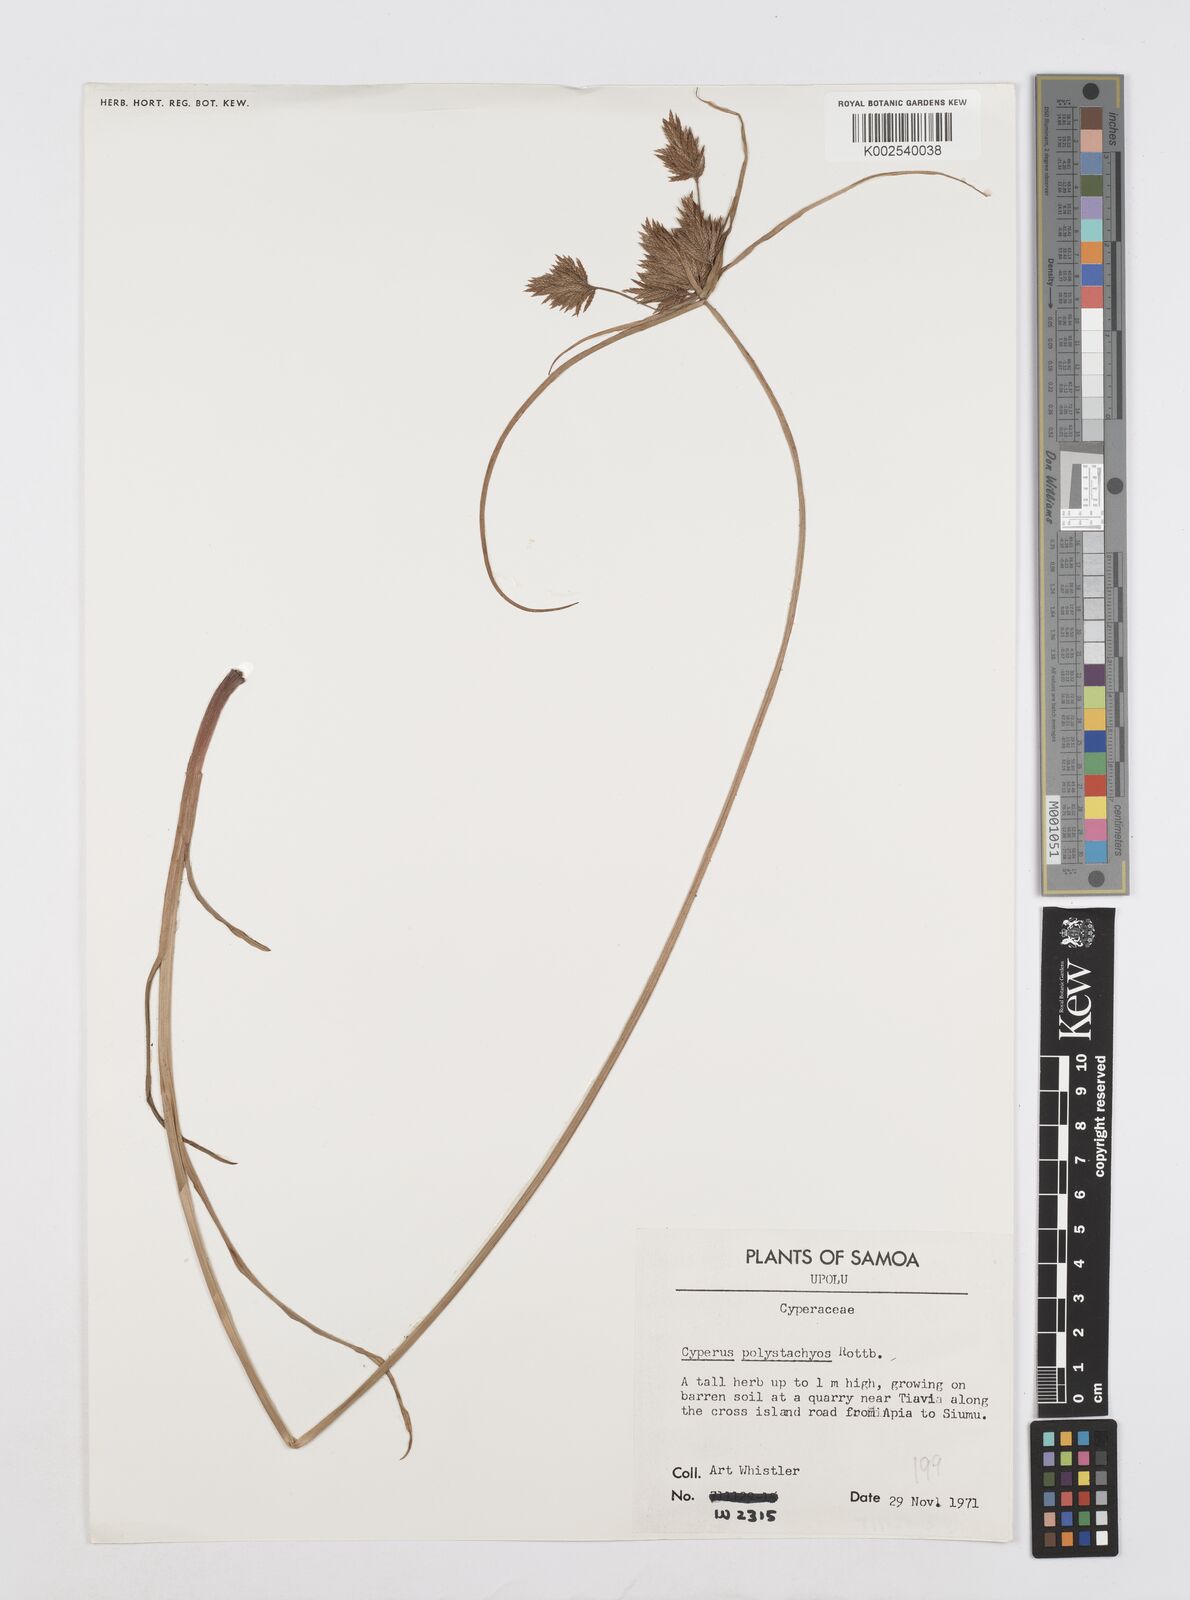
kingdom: Plantae
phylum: Tracheophyta
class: Liliopsida
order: Poales
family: Cyperaceae
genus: Cyperus
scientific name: Cyperus polystachyos
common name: Bunchy flat sedge
